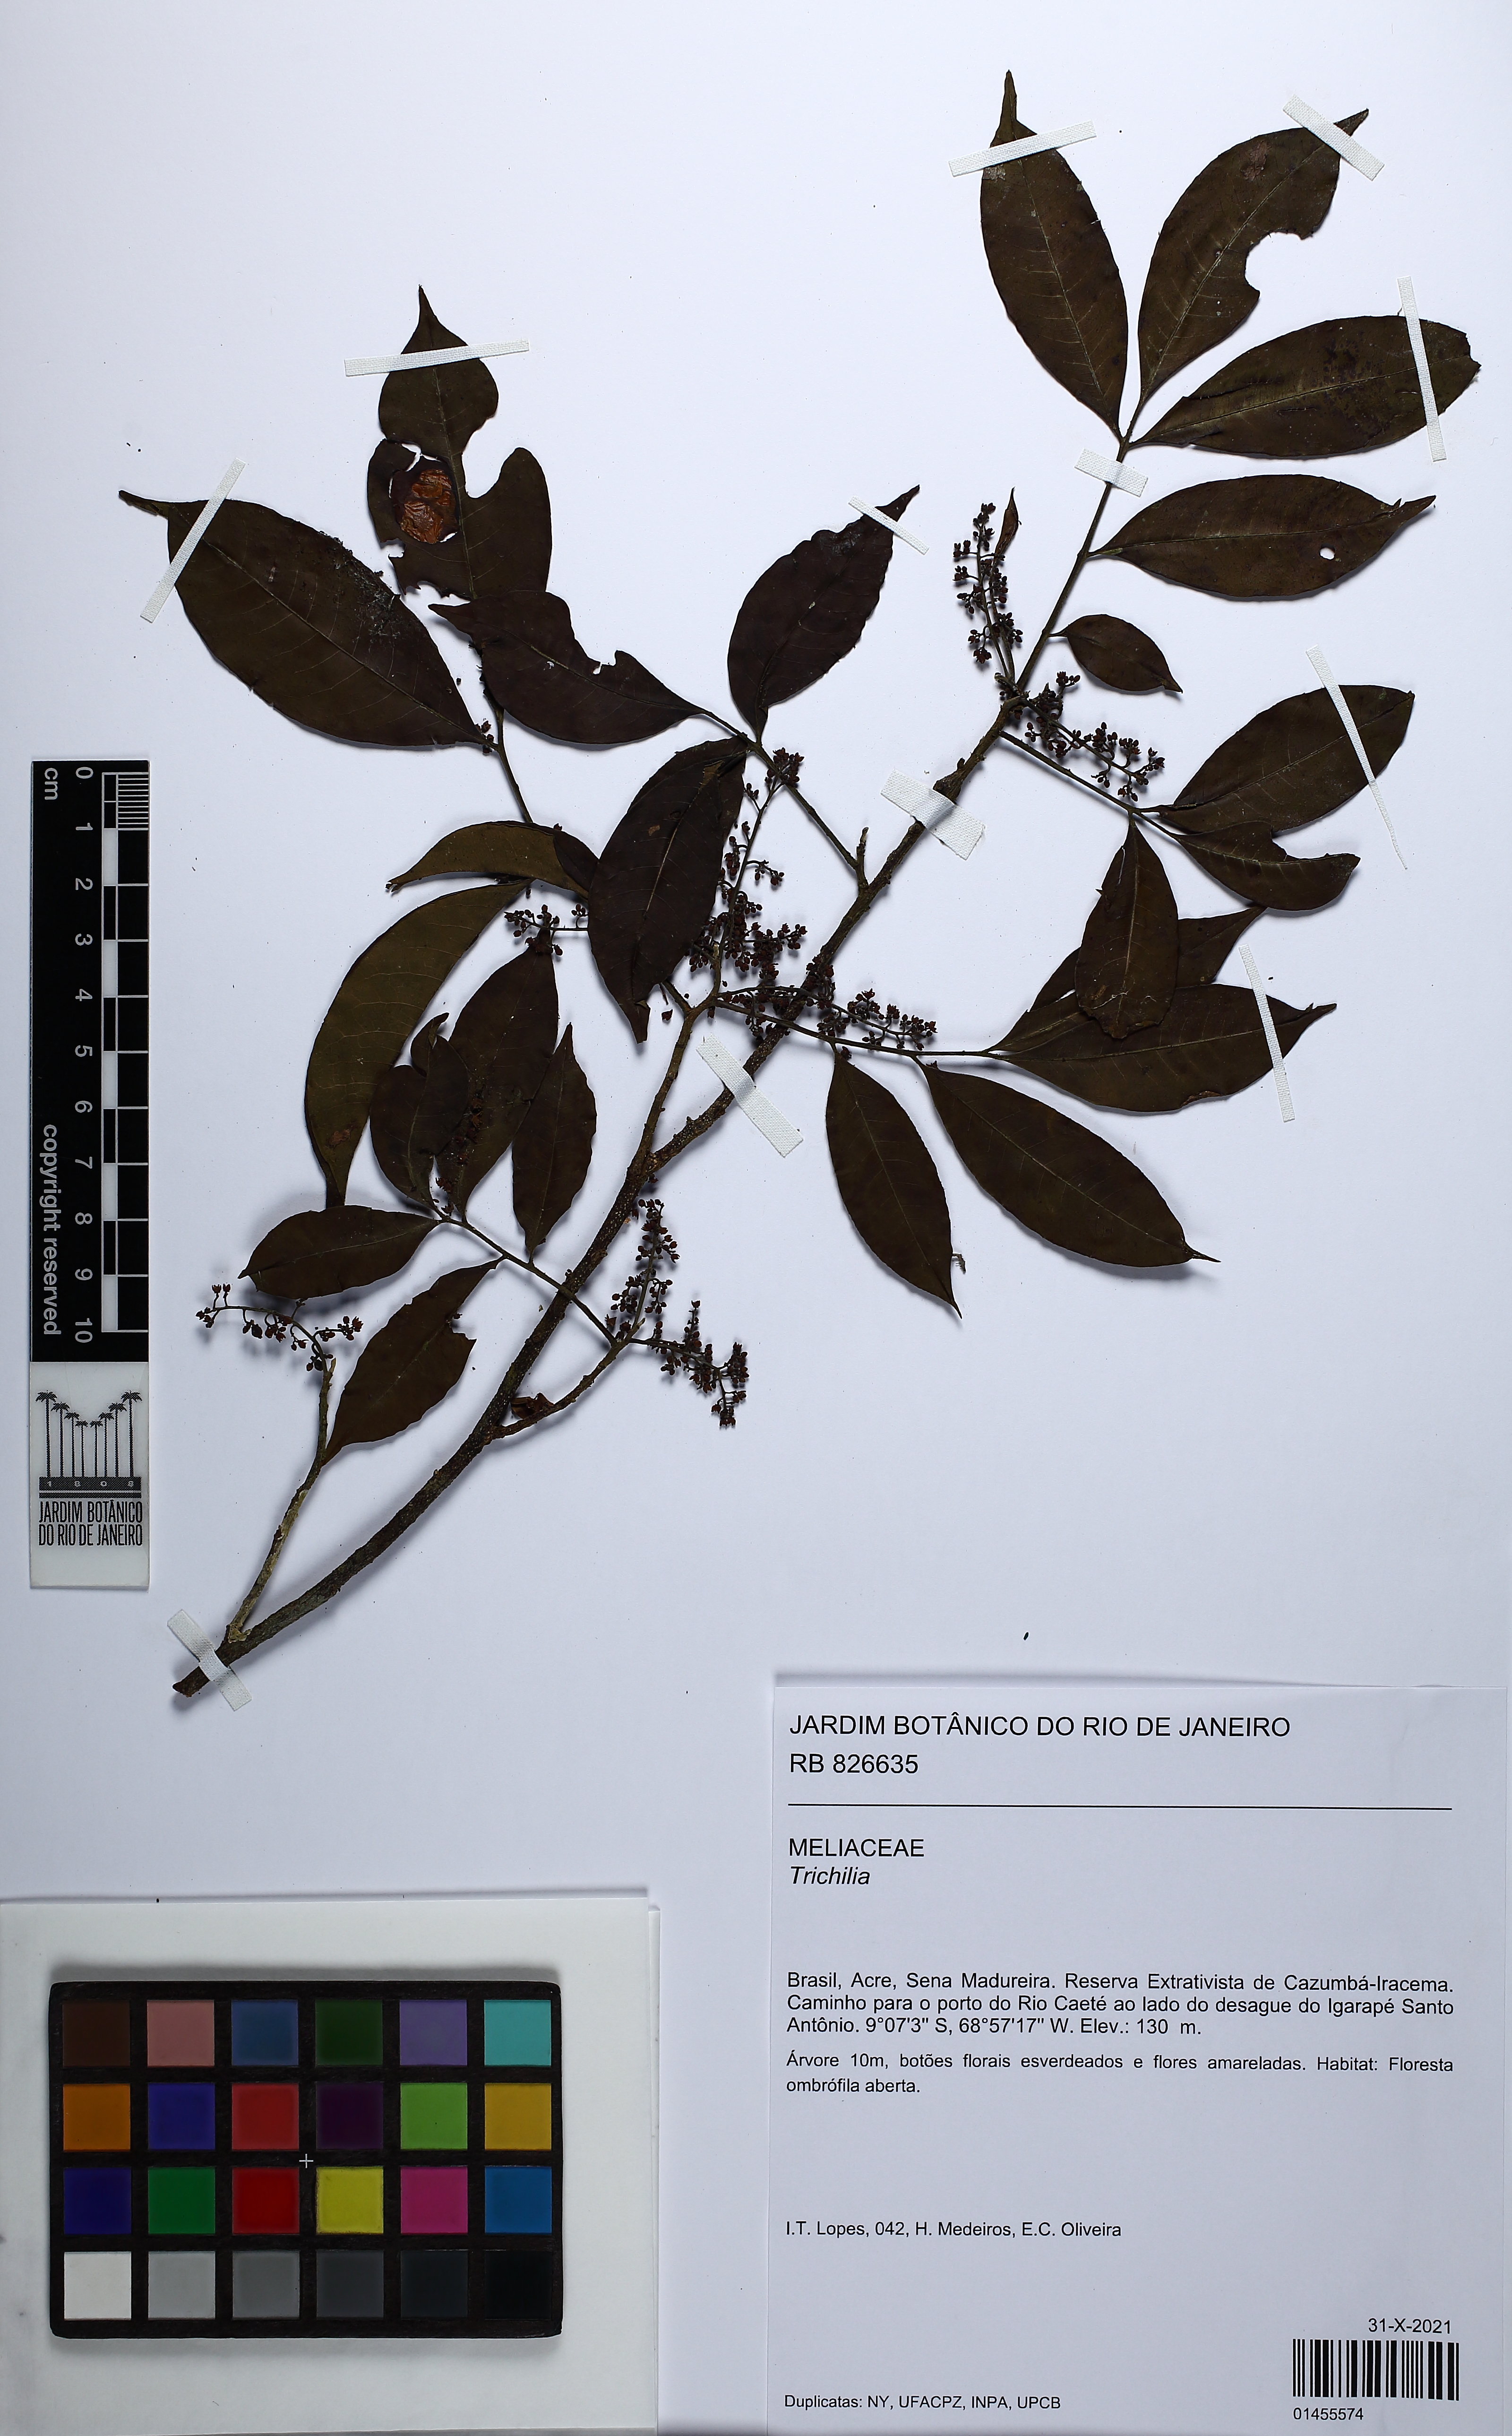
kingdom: Plantae
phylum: Tracheophyta
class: Magnoliopsida
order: Sapindales
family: Meliaceae
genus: Trichilia
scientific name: Trichilia
